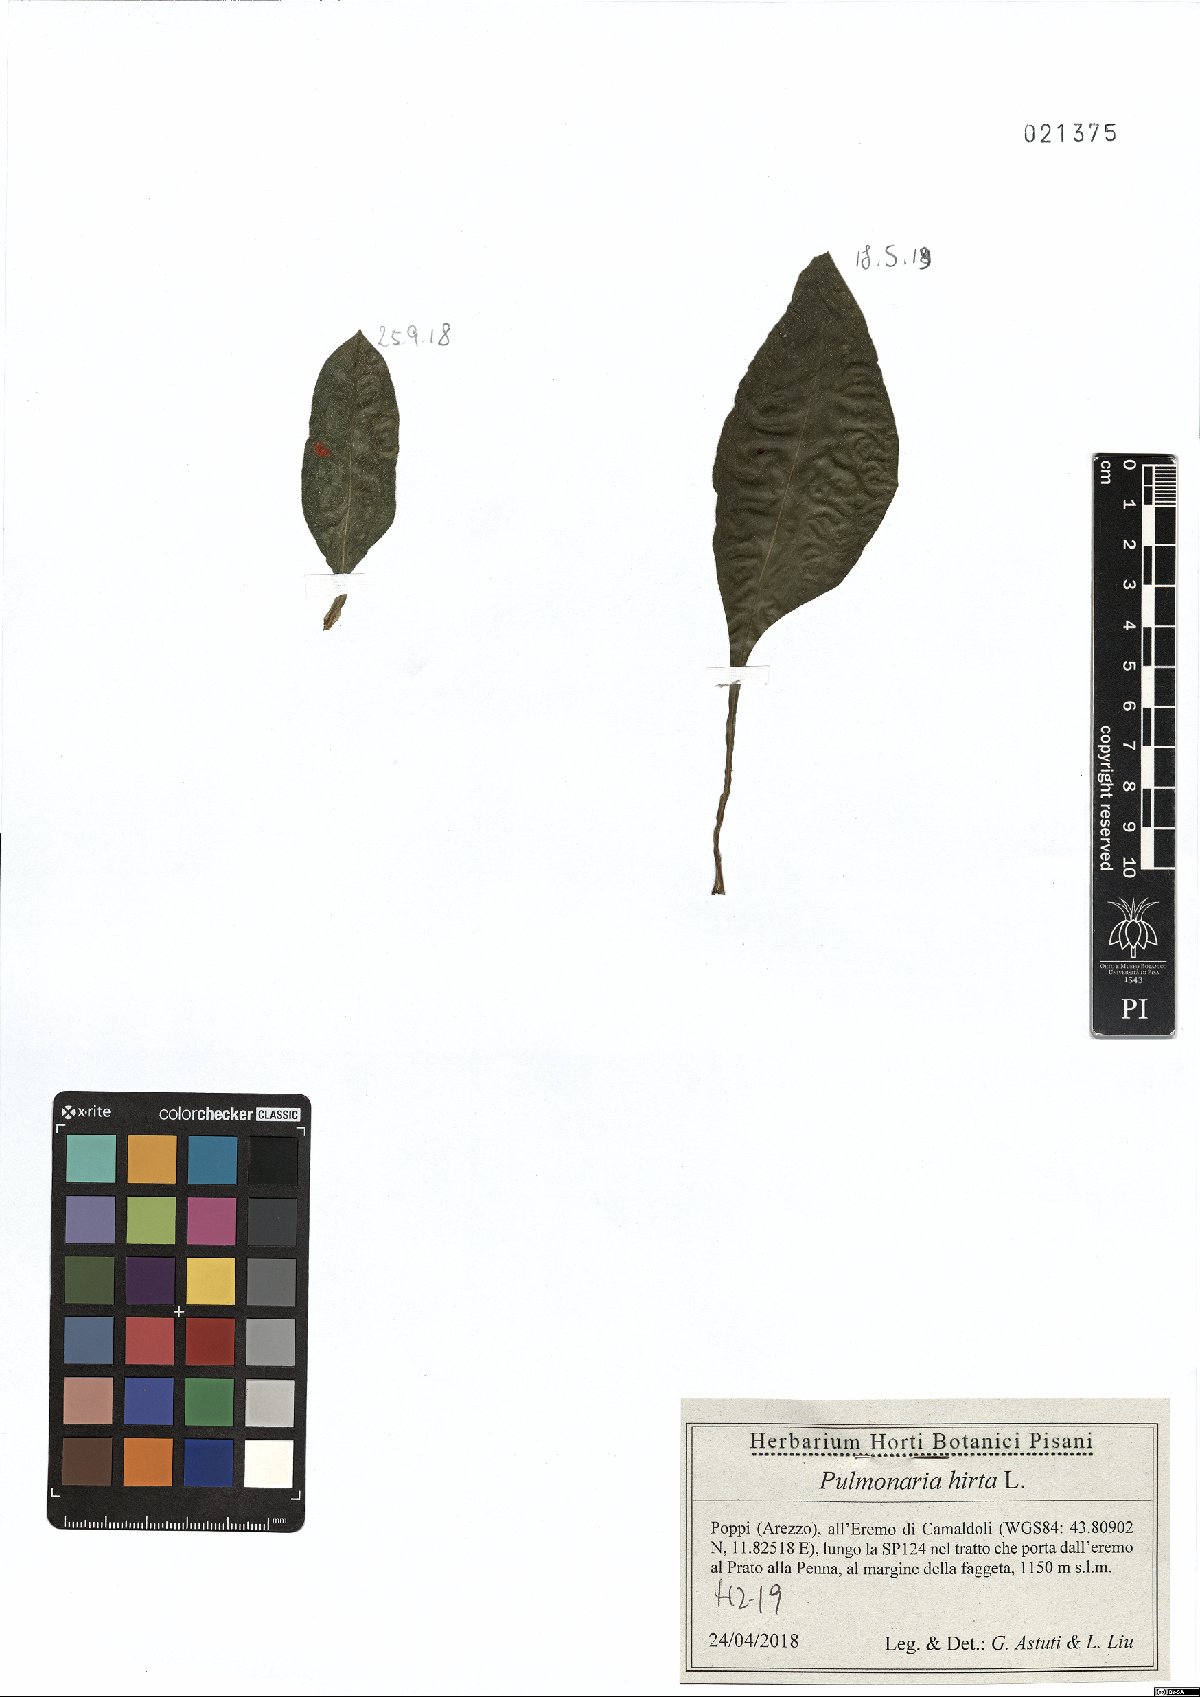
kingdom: Plantae
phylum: Tracheophyta
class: Magnoliopsida
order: Boraginales
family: Boraginaceae
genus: Pulmonaria
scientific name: Pulmonaria hirta
